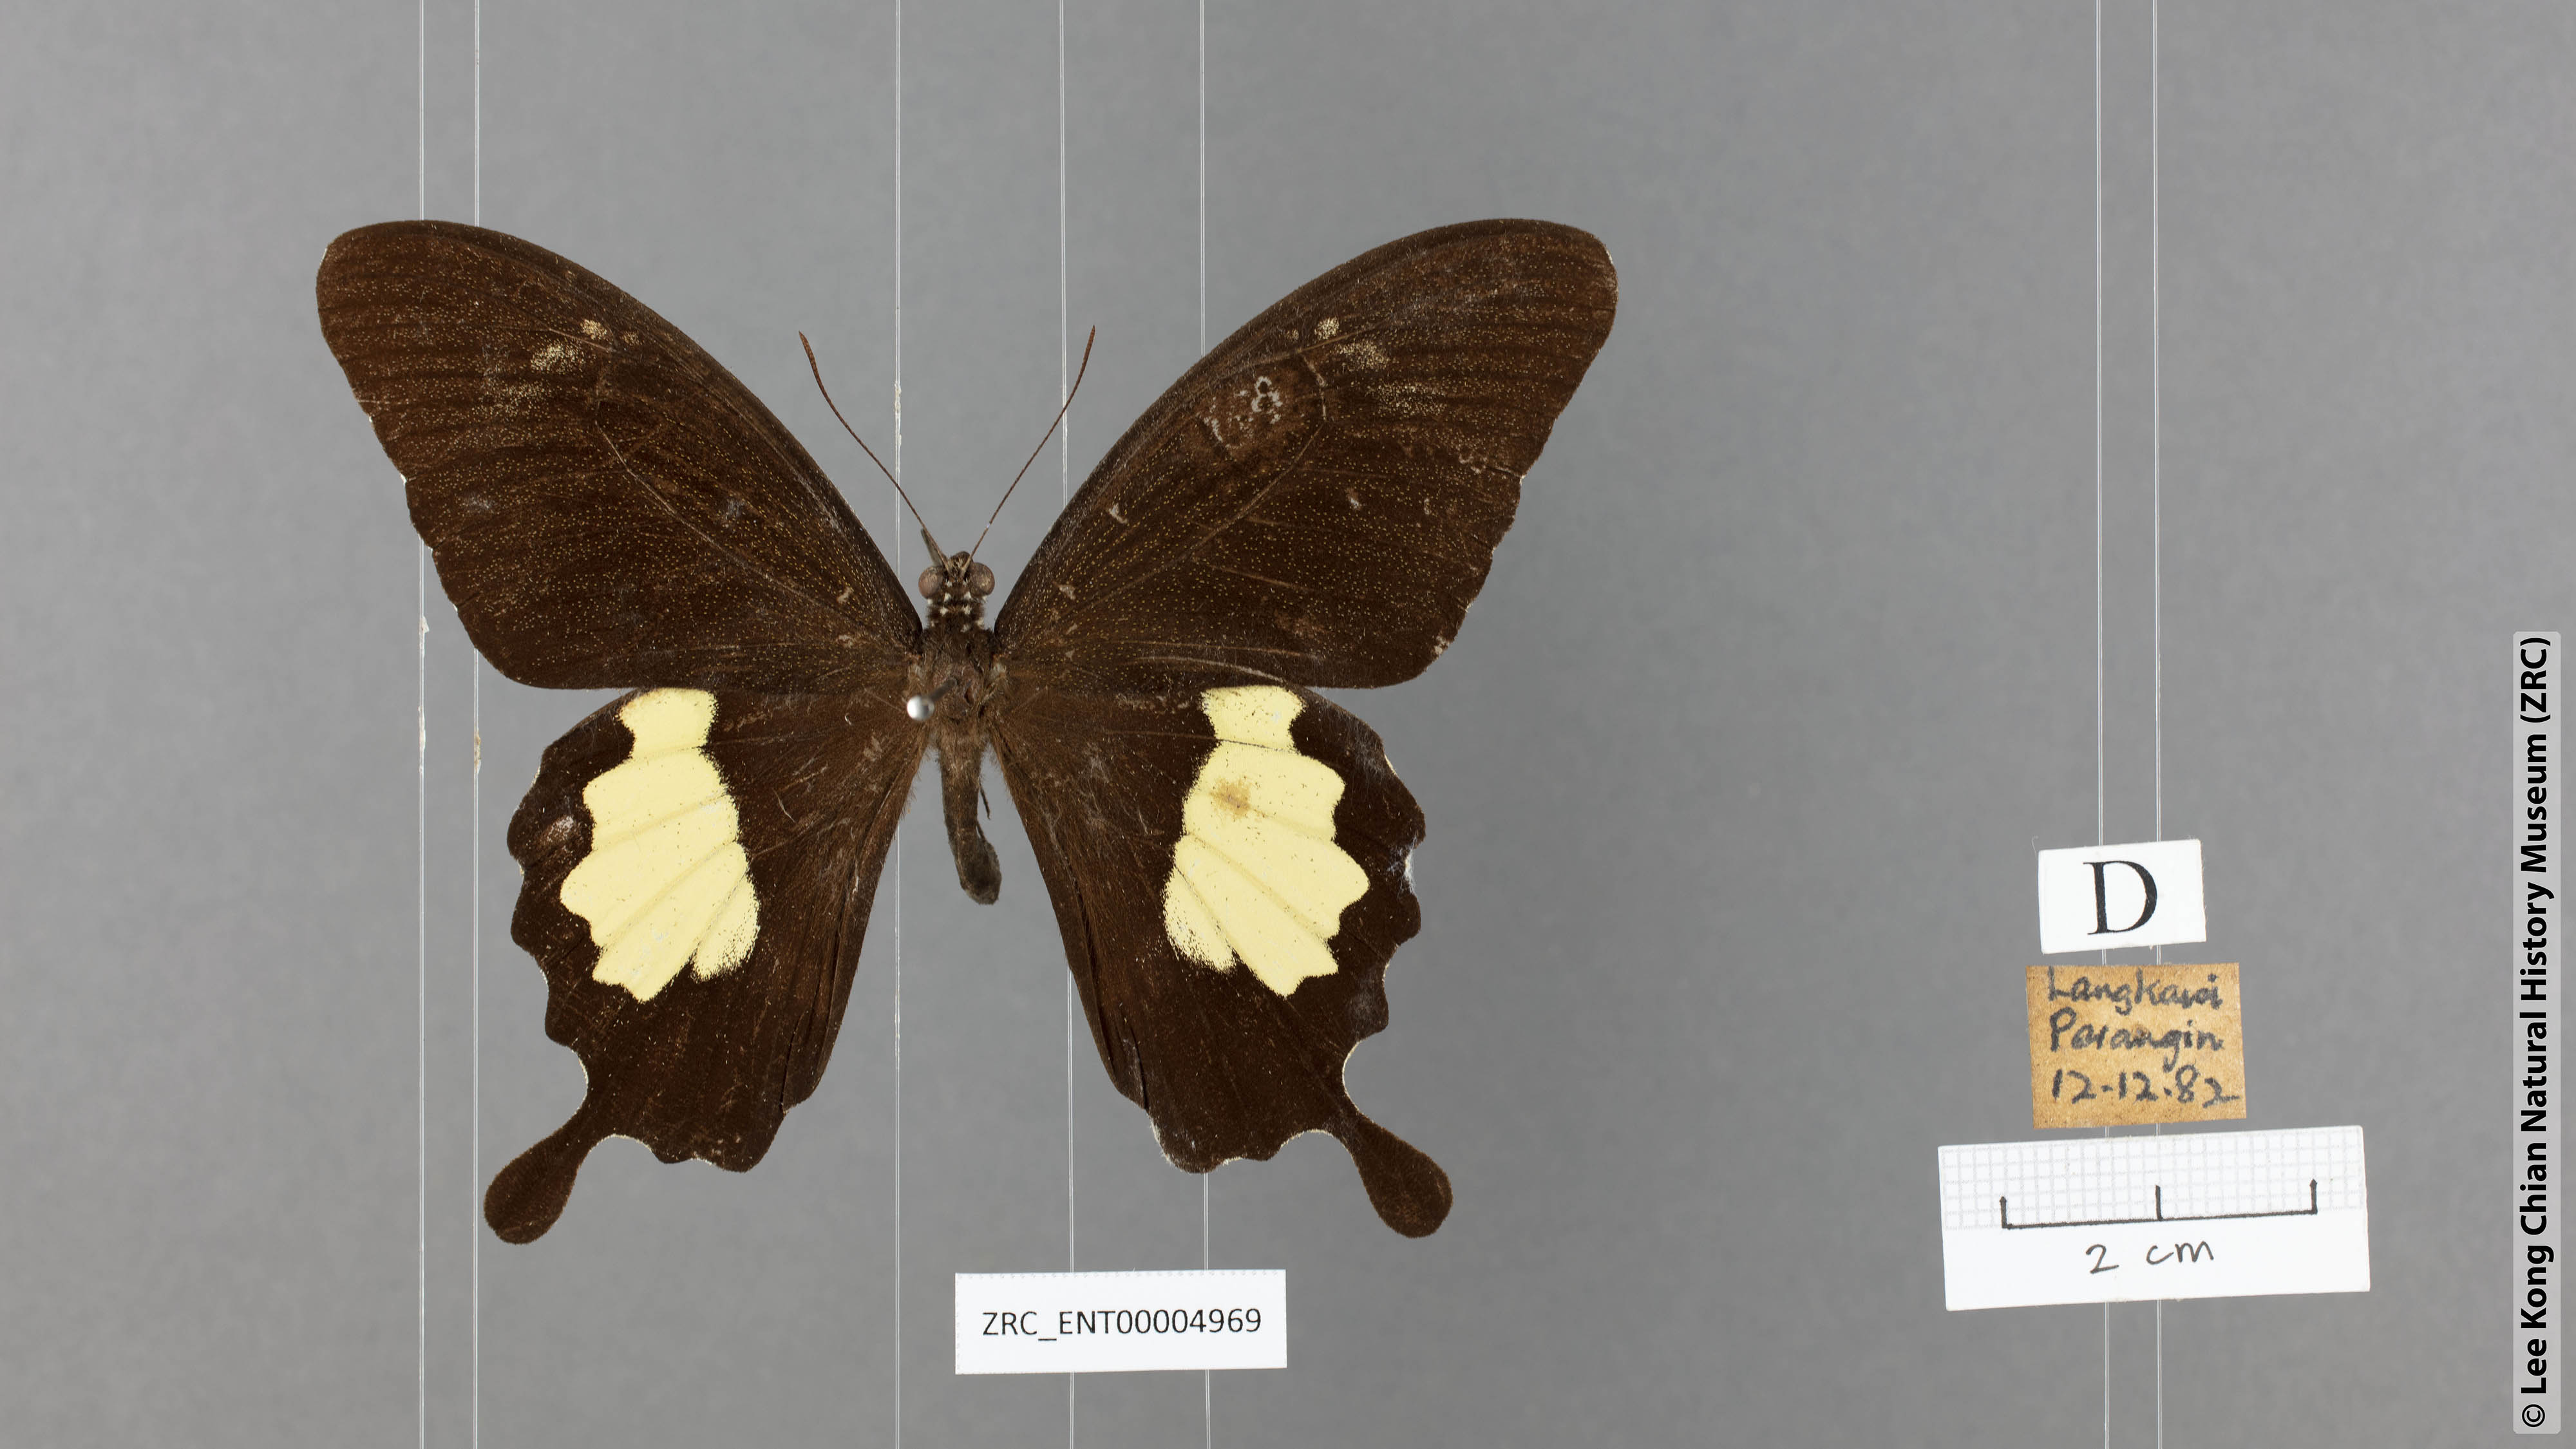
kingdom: Animalia
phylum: Arthropoda
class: Insecta
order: Lepidoptera
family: Papilionidae
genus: Papilio
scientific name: Papilio nephelus
